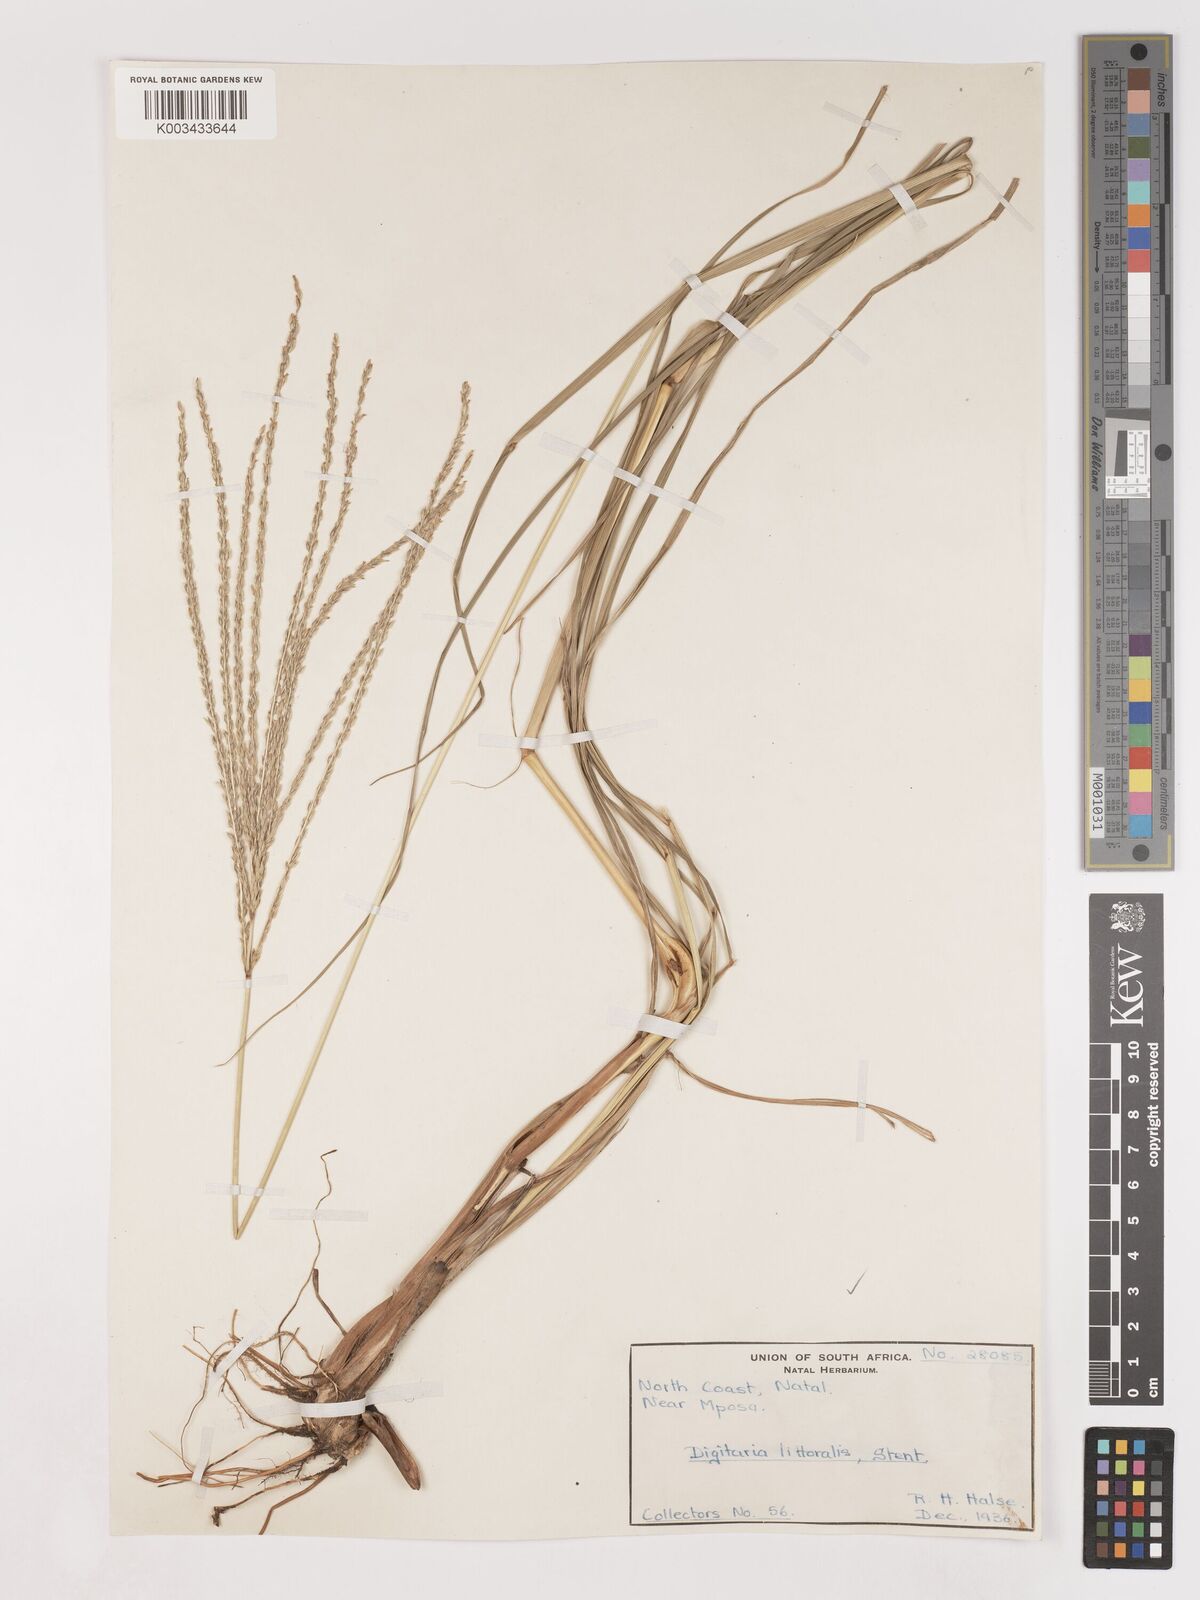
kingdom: Plantae
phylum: Tracheophyta
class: Liliopsida
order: Poales
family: Poaceae
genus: Digitaria
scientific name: Digitaria natalensis
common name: Coast finger grass
